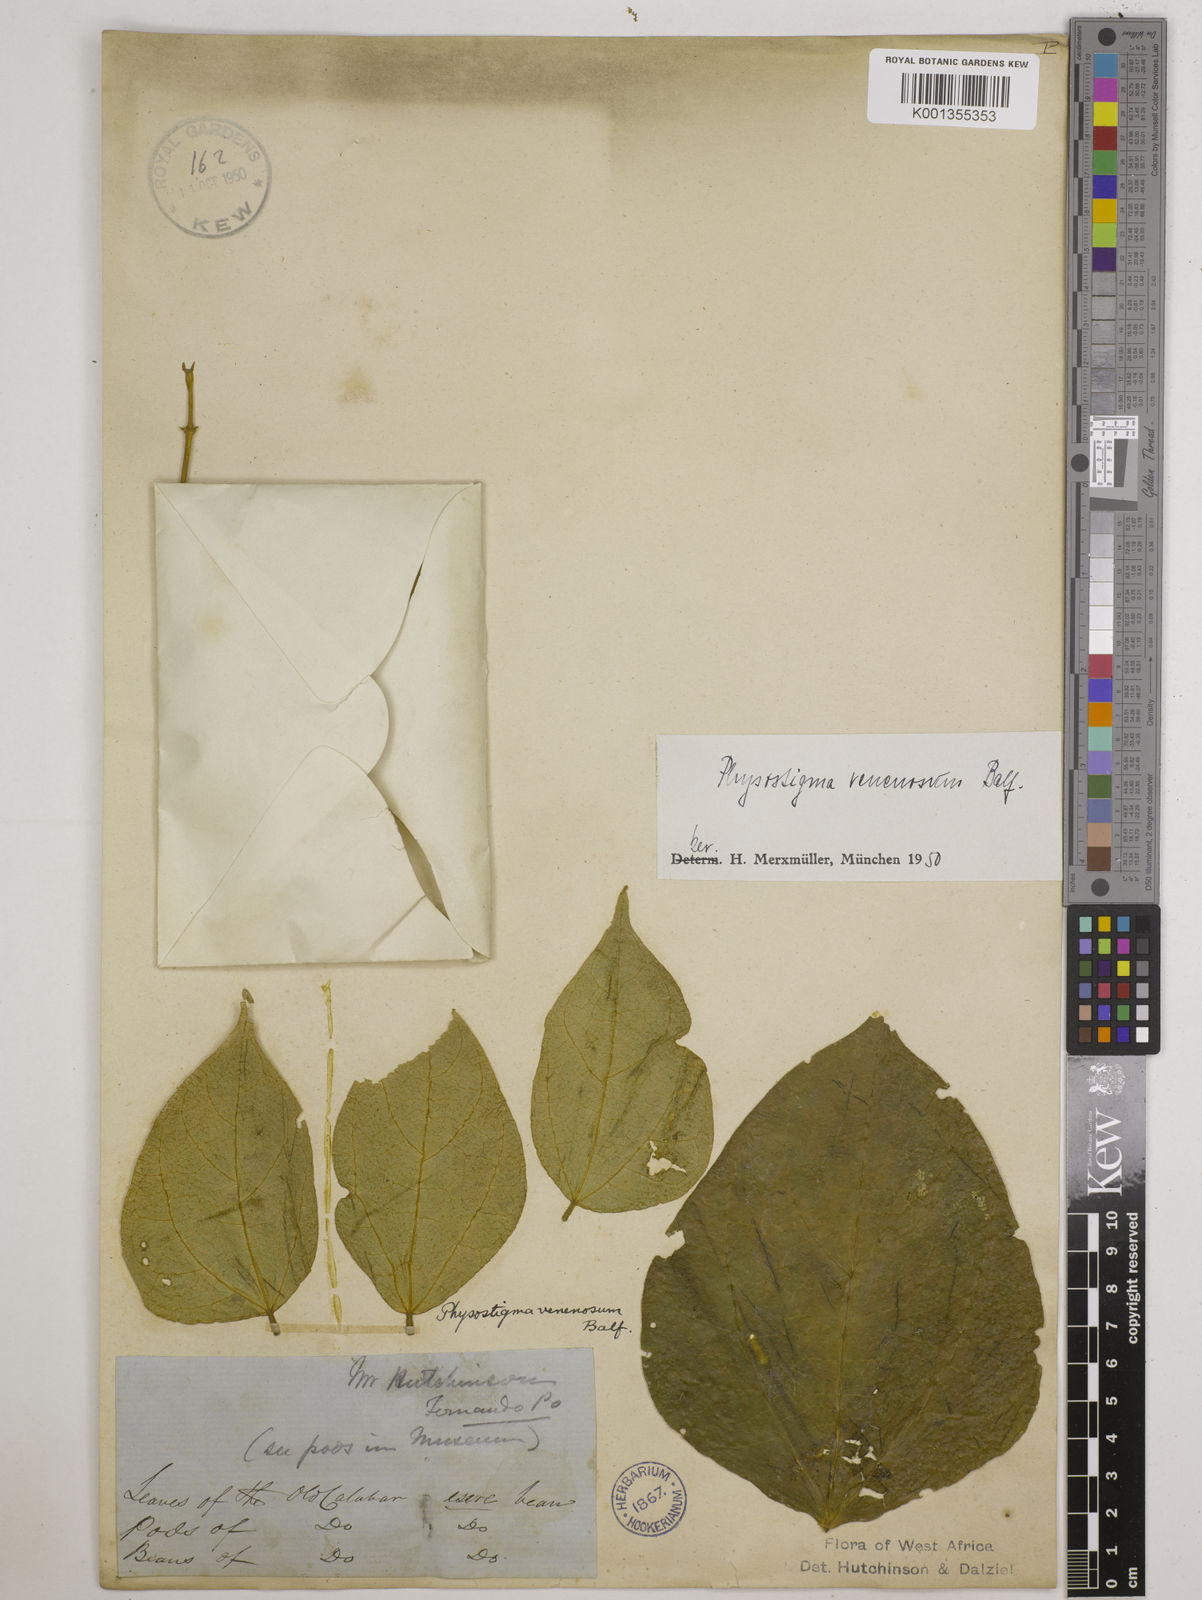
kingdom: Plantae
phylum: Tracheophyta
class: Magnoliopsida
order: Fabales
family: Fabaceae
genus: Physostigma
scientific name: Physostigma venenosum
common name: Calabar-bean
